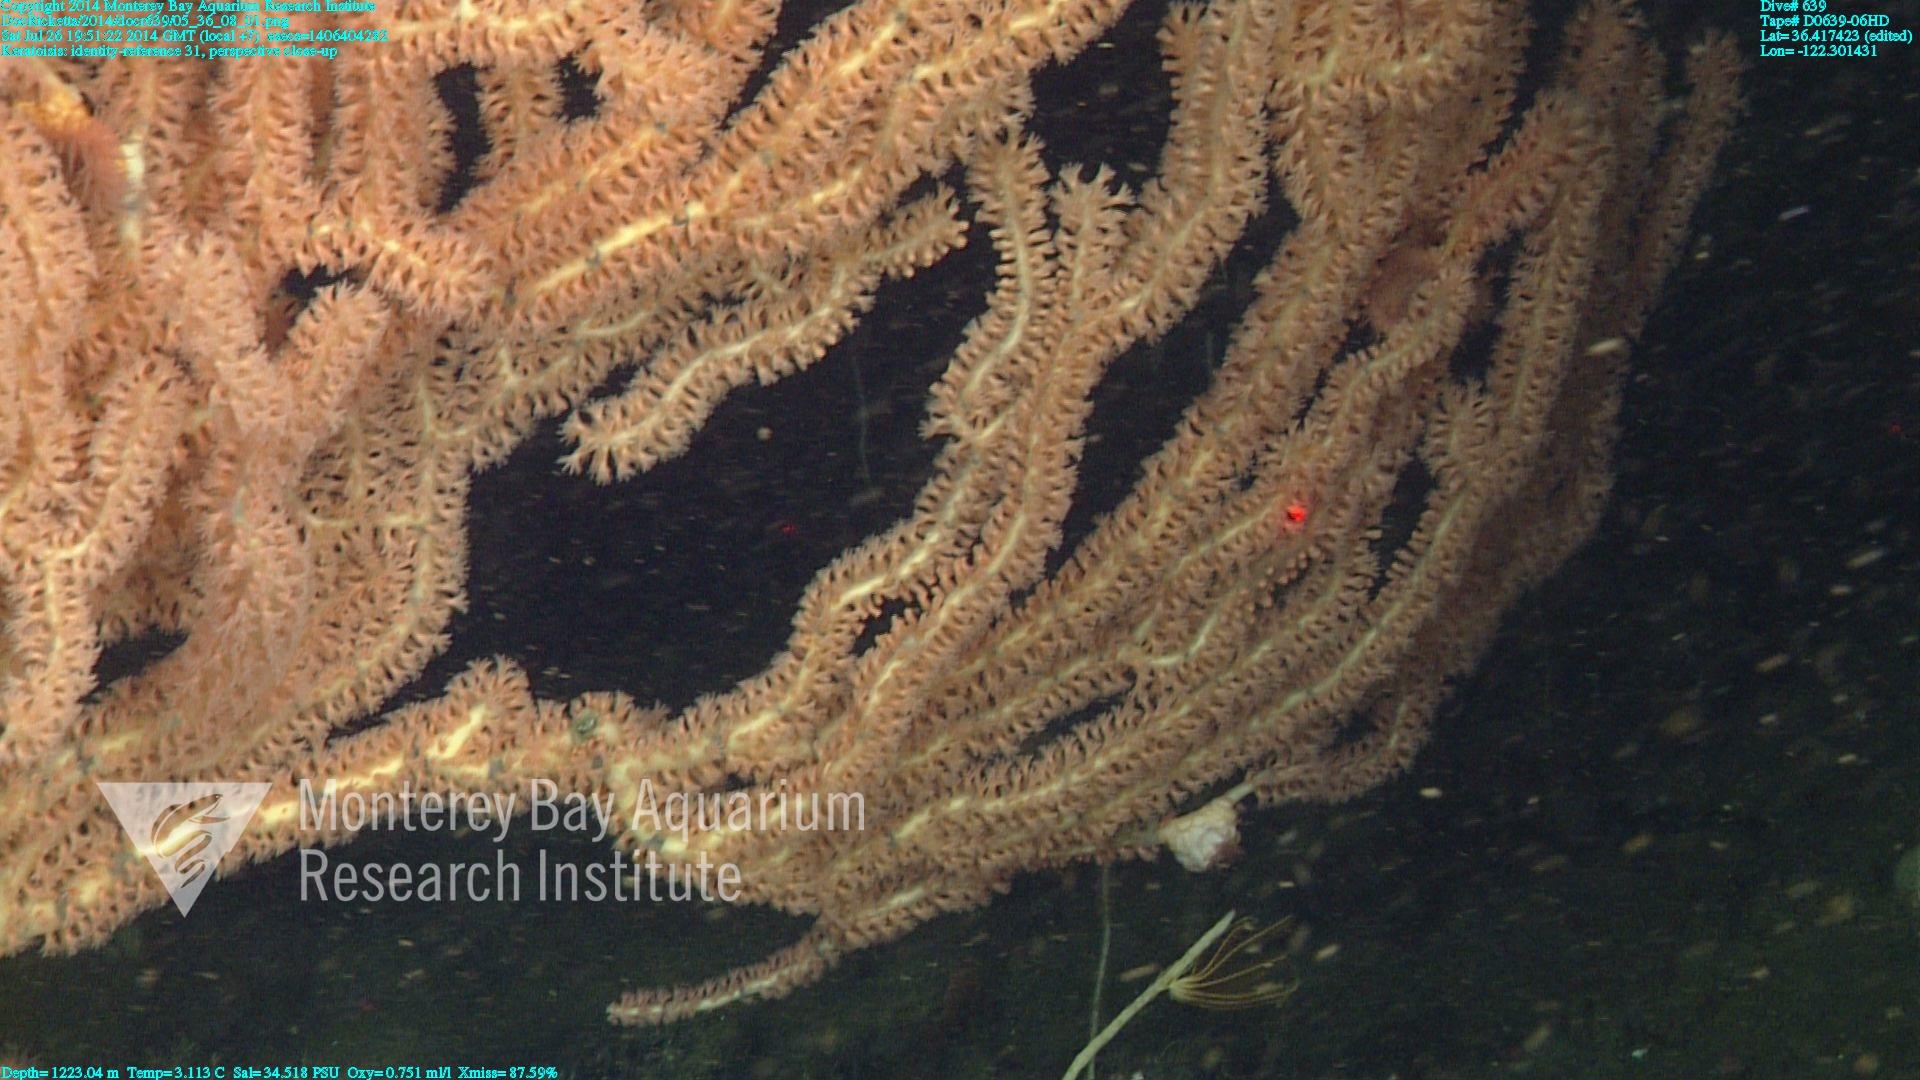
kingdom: Animalia
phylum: Cnidaria
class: Anthozoa
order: Scleralcyonacea
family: Keratoisididae
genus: Keratoisis
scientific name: Keratoisis
